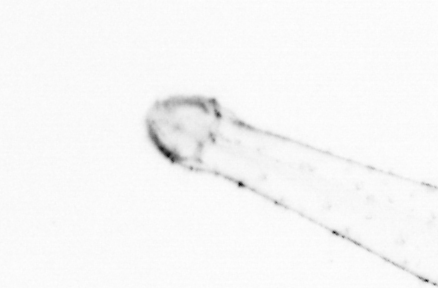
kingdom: Animalia
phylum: Chaetognatha
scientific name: Chaetognatha
